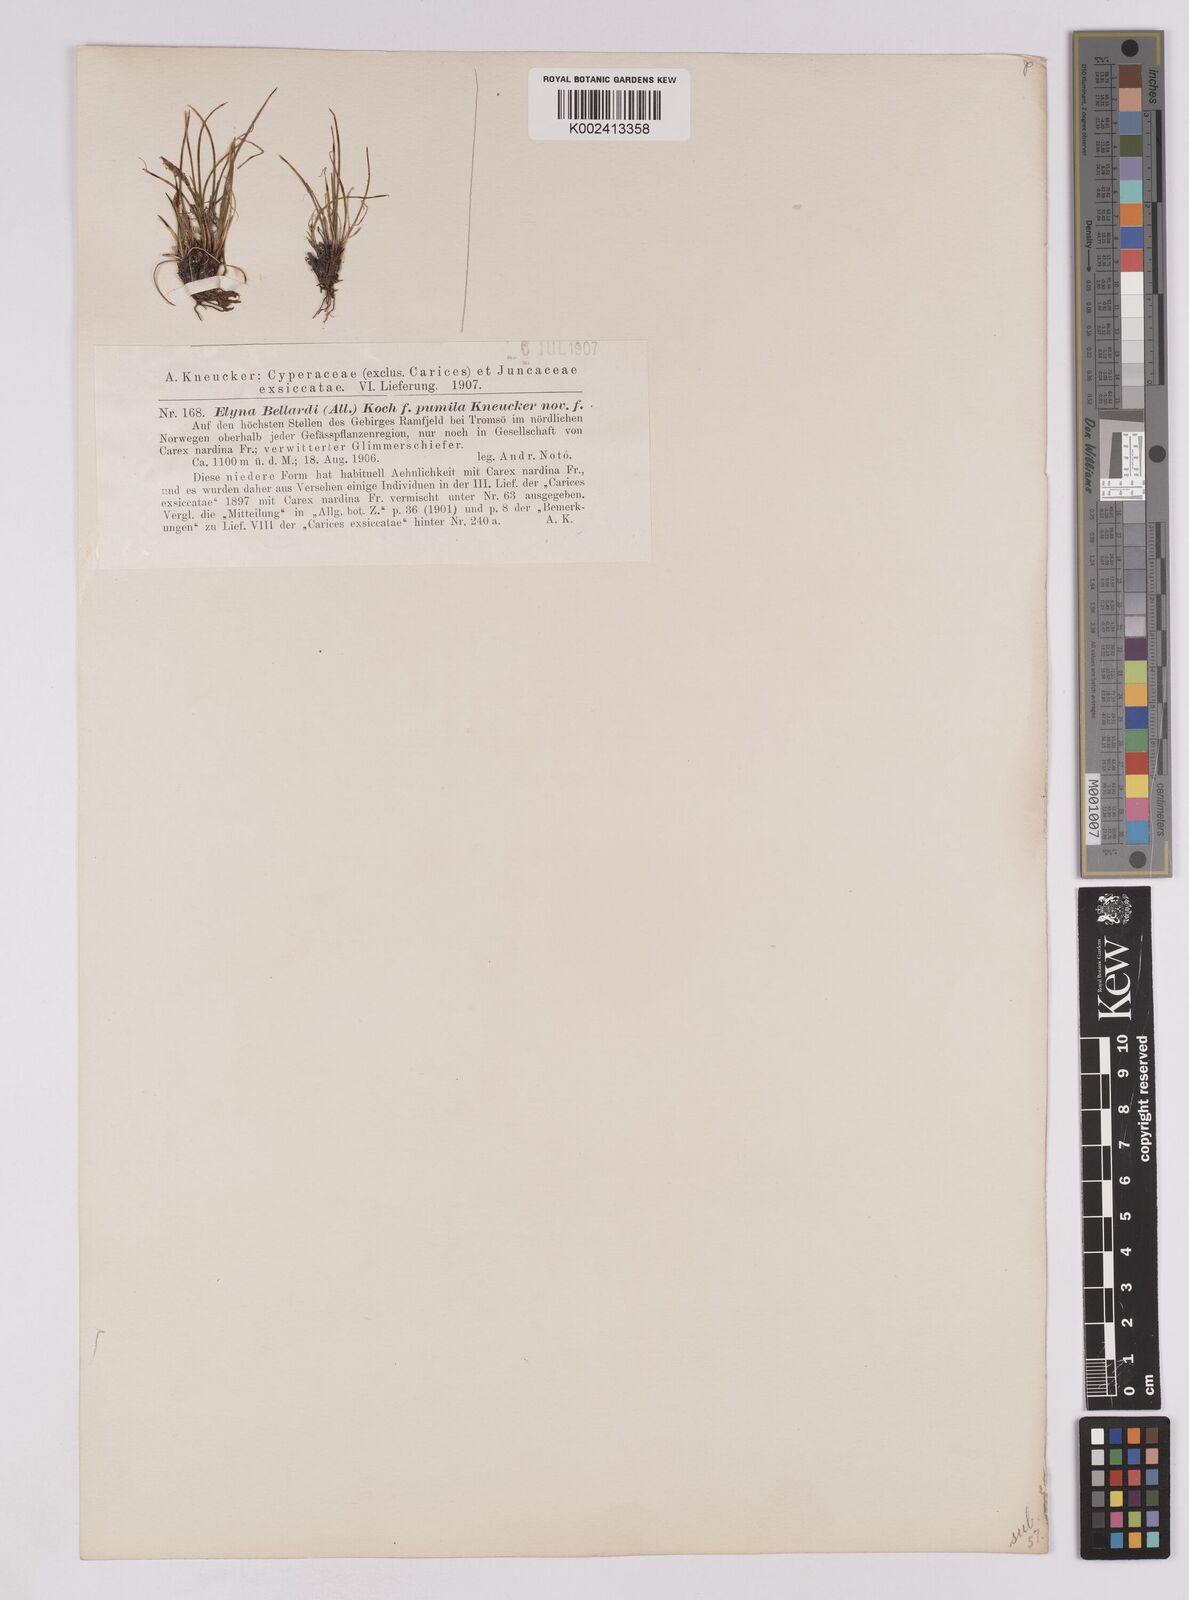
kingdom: Plantae
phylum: Tracheophyta
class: Liliopsida
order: Poales
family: Cyperaceae
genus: Carex
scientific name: Carex myosuroides
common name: Bellard's bog sedge
